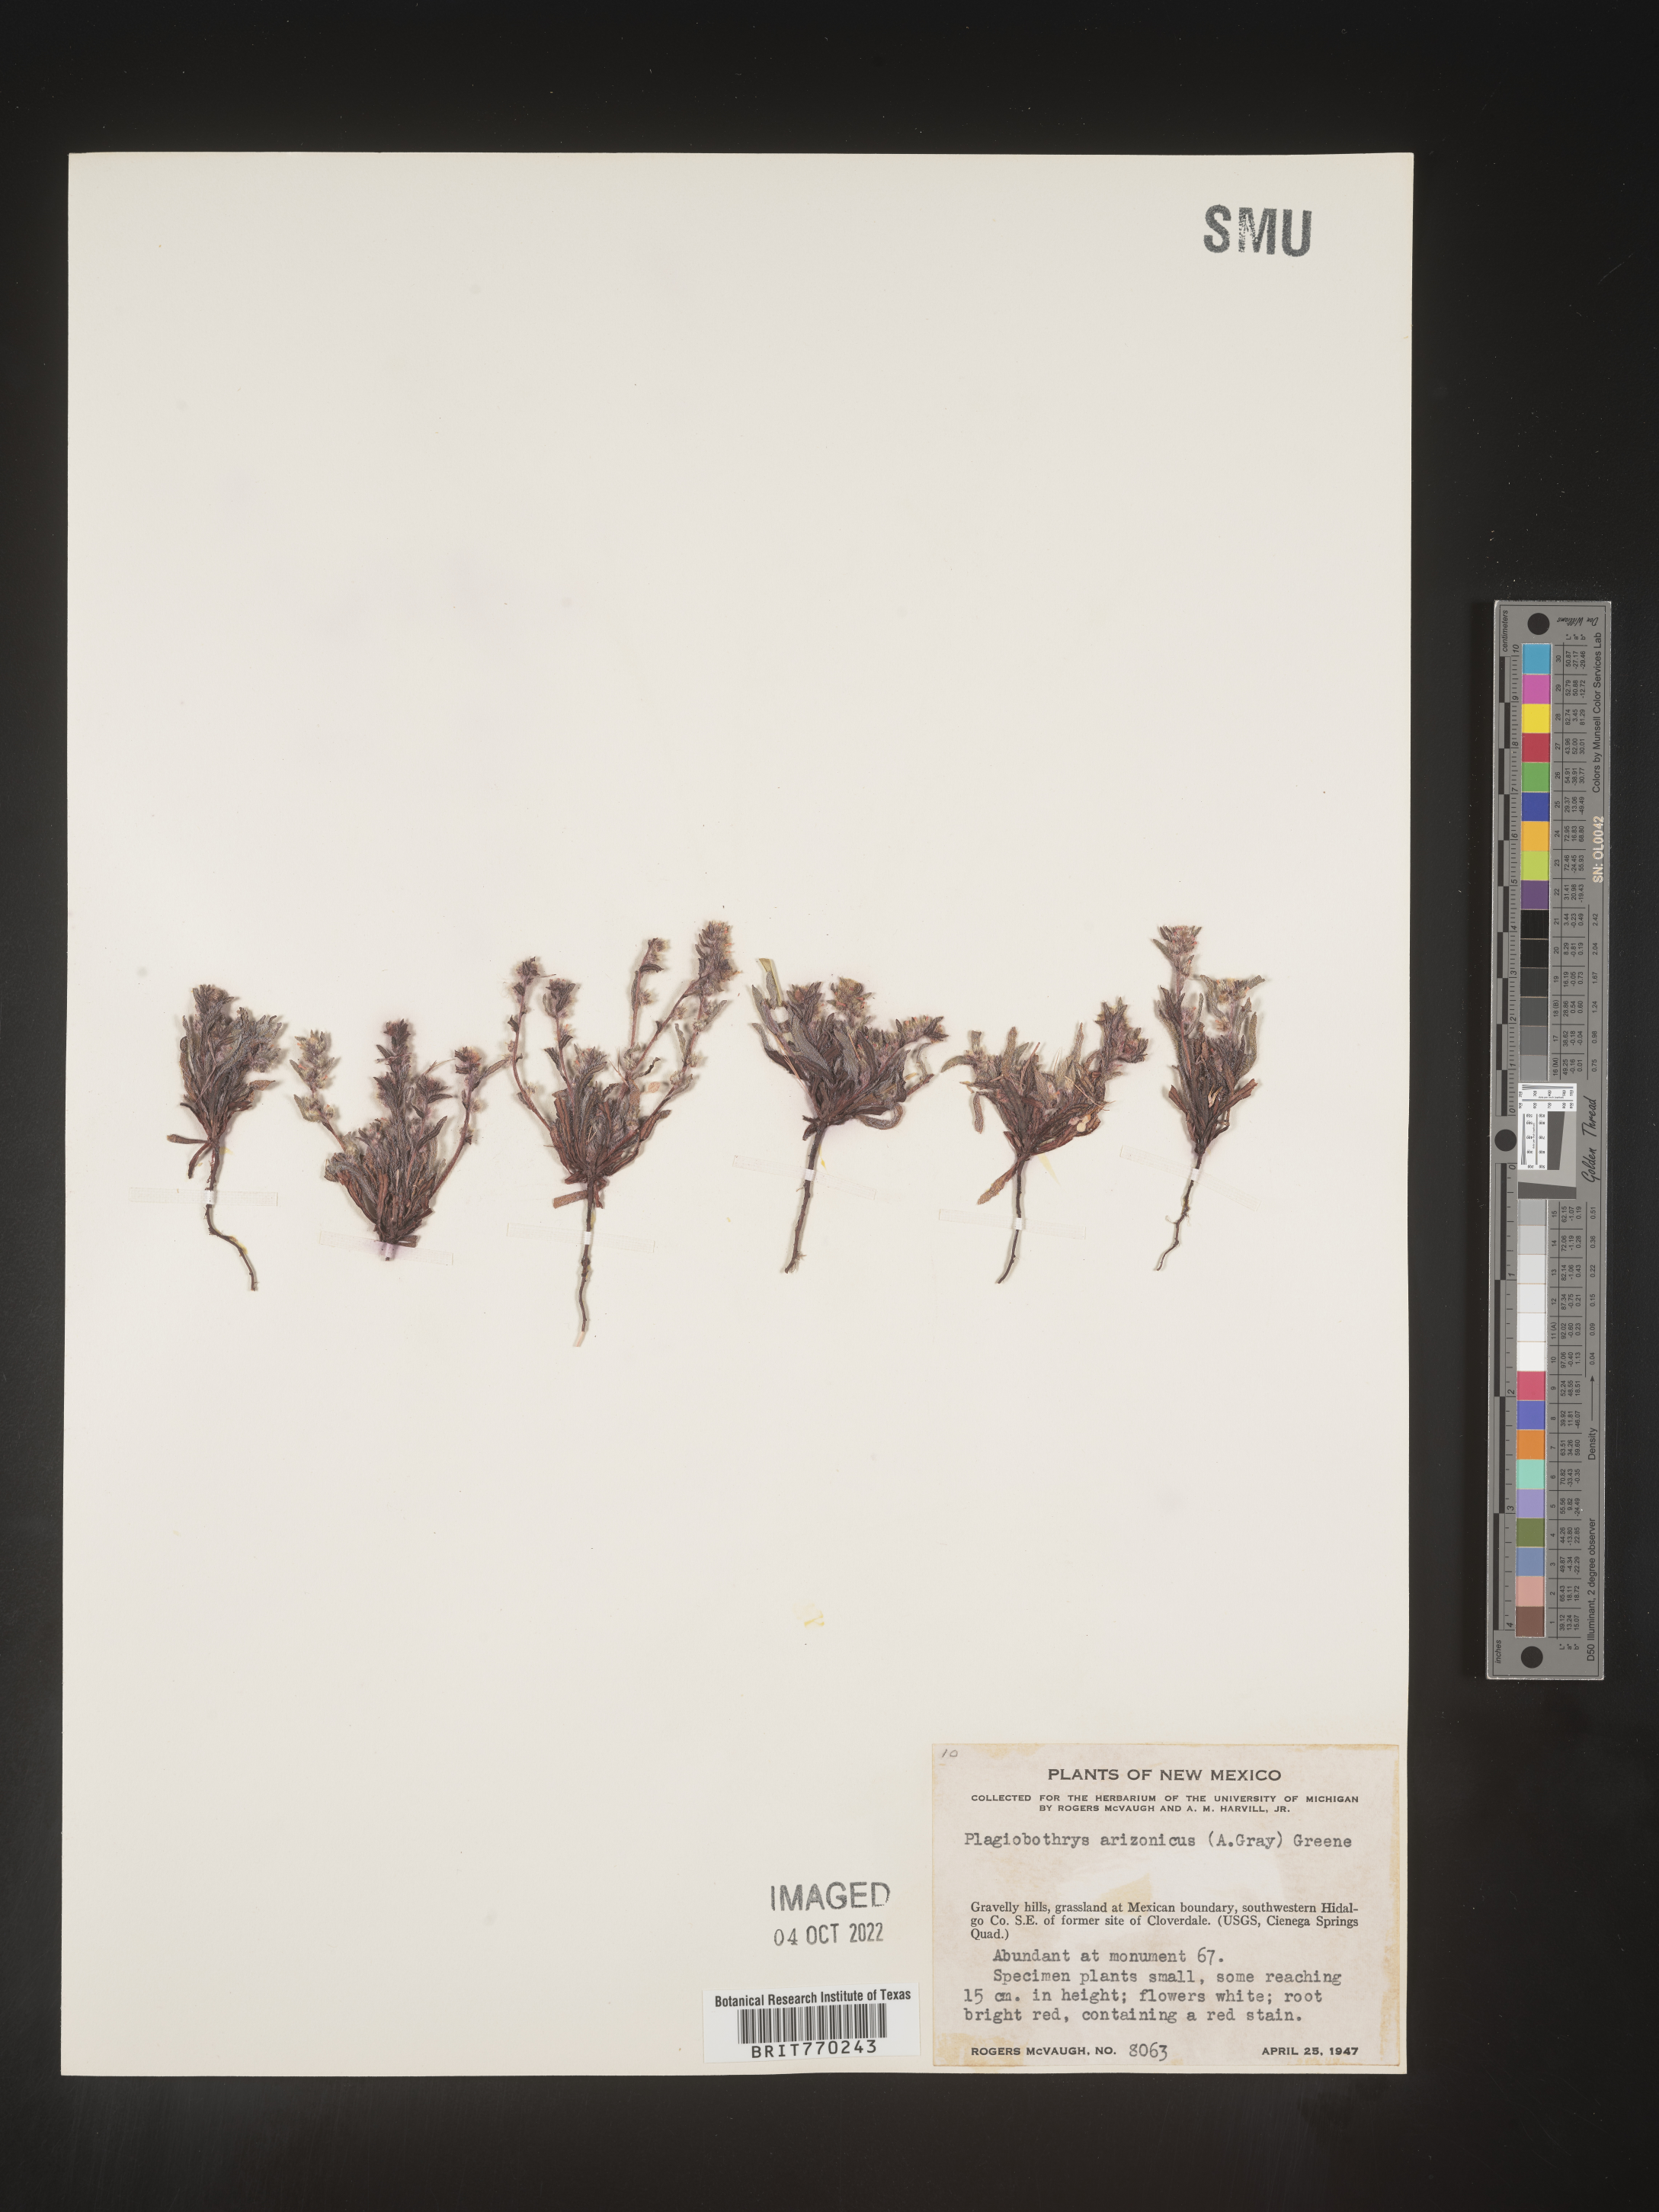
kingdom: Plantae
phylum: Tracheophyta
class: Magnoliopsida
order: Boraginales
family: Boraginaceae
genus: Plagiobothrys
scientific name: Plagiobothrys
